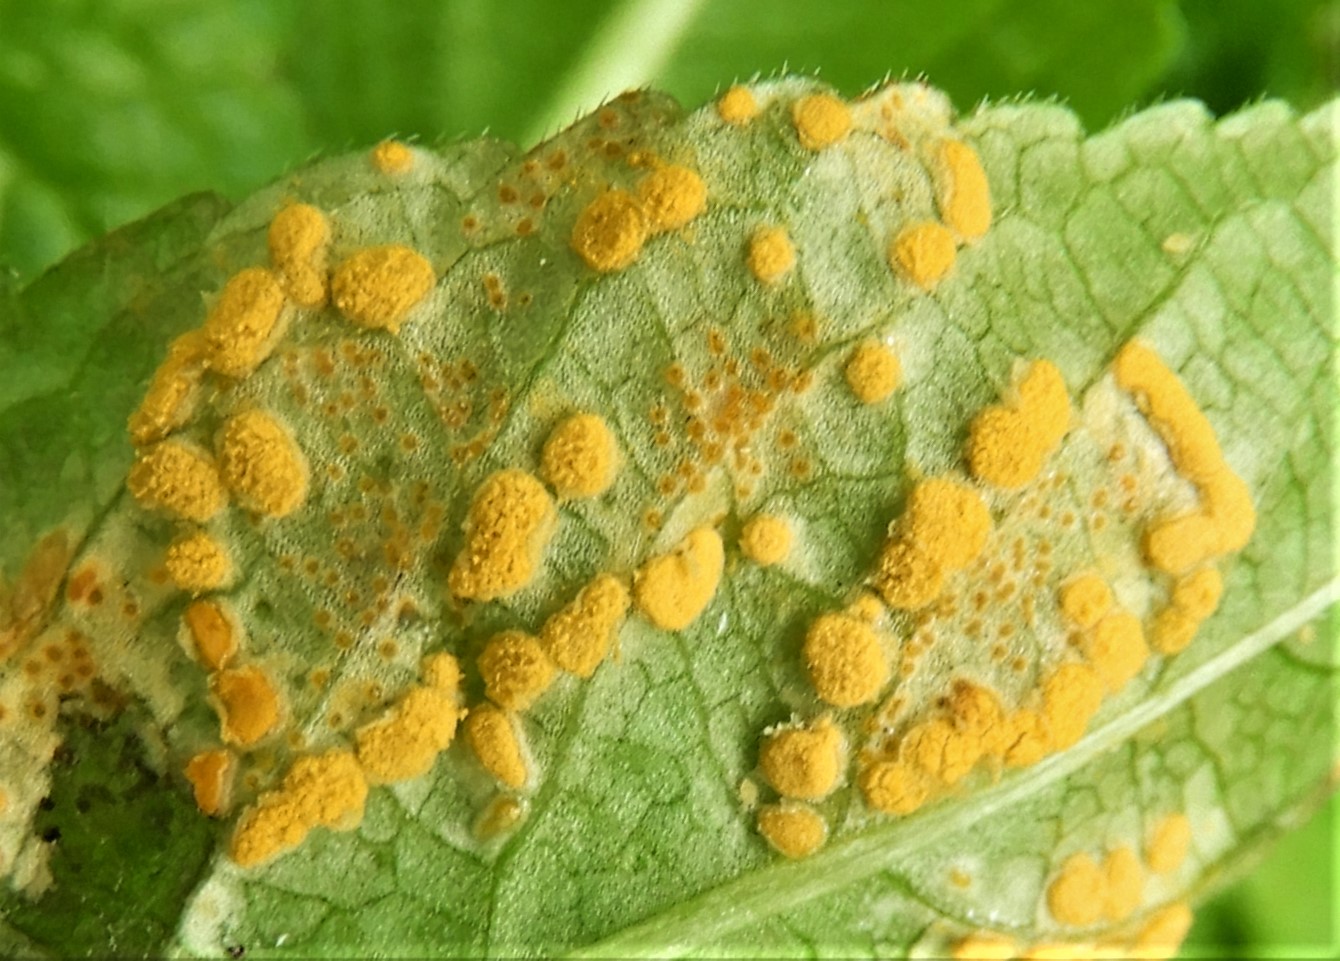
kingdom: Fungi
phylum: Basidiomycota
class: Pucciniomycetes
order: Pucciniales
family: Melampsoraceae
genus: Melampsora
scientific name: Melampsora populnea
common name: poppel-skorperust
